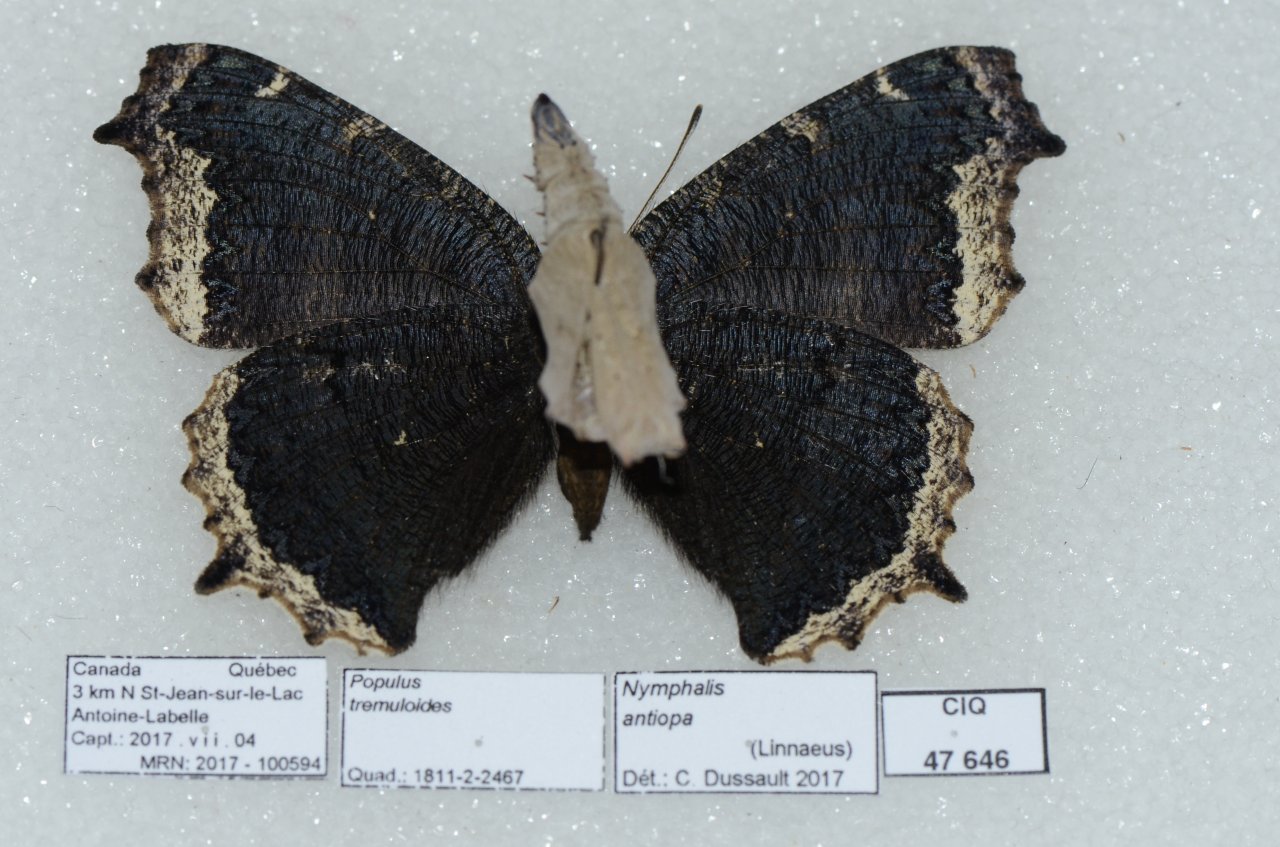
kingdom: Animalia
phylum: Arthropoda
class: Insecta
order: Lepidoptera
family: Nymphalidae
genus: Nymphalis
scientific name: Nymphalis antiopa
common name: Mourning Cloak
